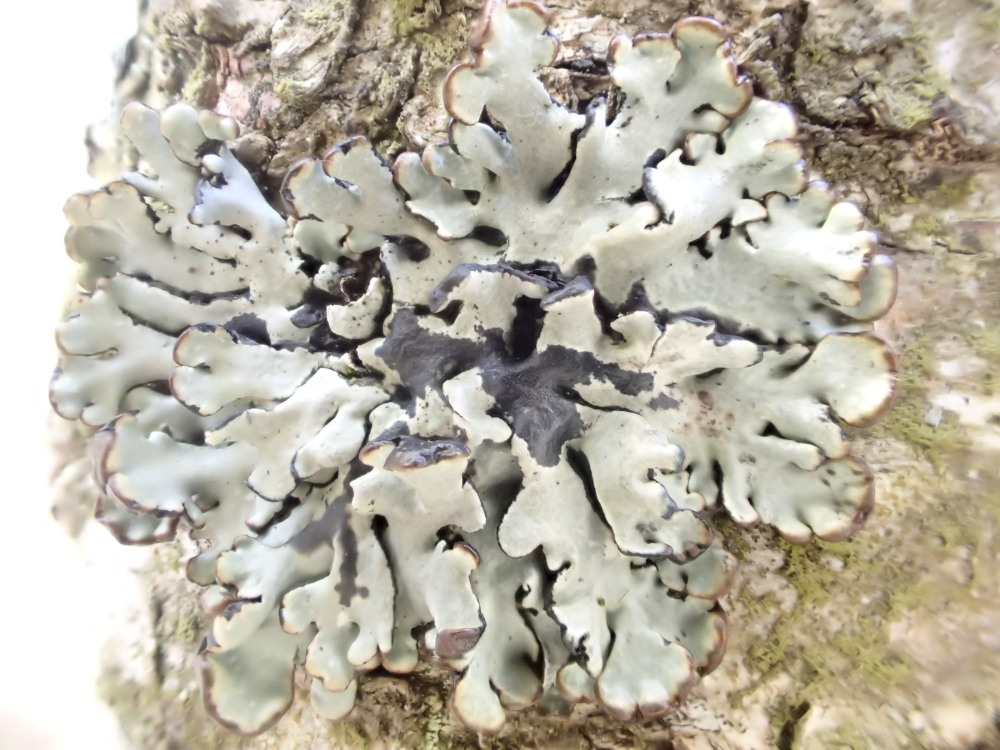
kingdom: Fungi
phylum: Ascomycota
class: Lecanoromycetes
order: Lecanorales
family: Parmeliaceae
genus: Hypogymnia
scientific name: Hypogymnia physodes
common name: almindelig kvistlav
